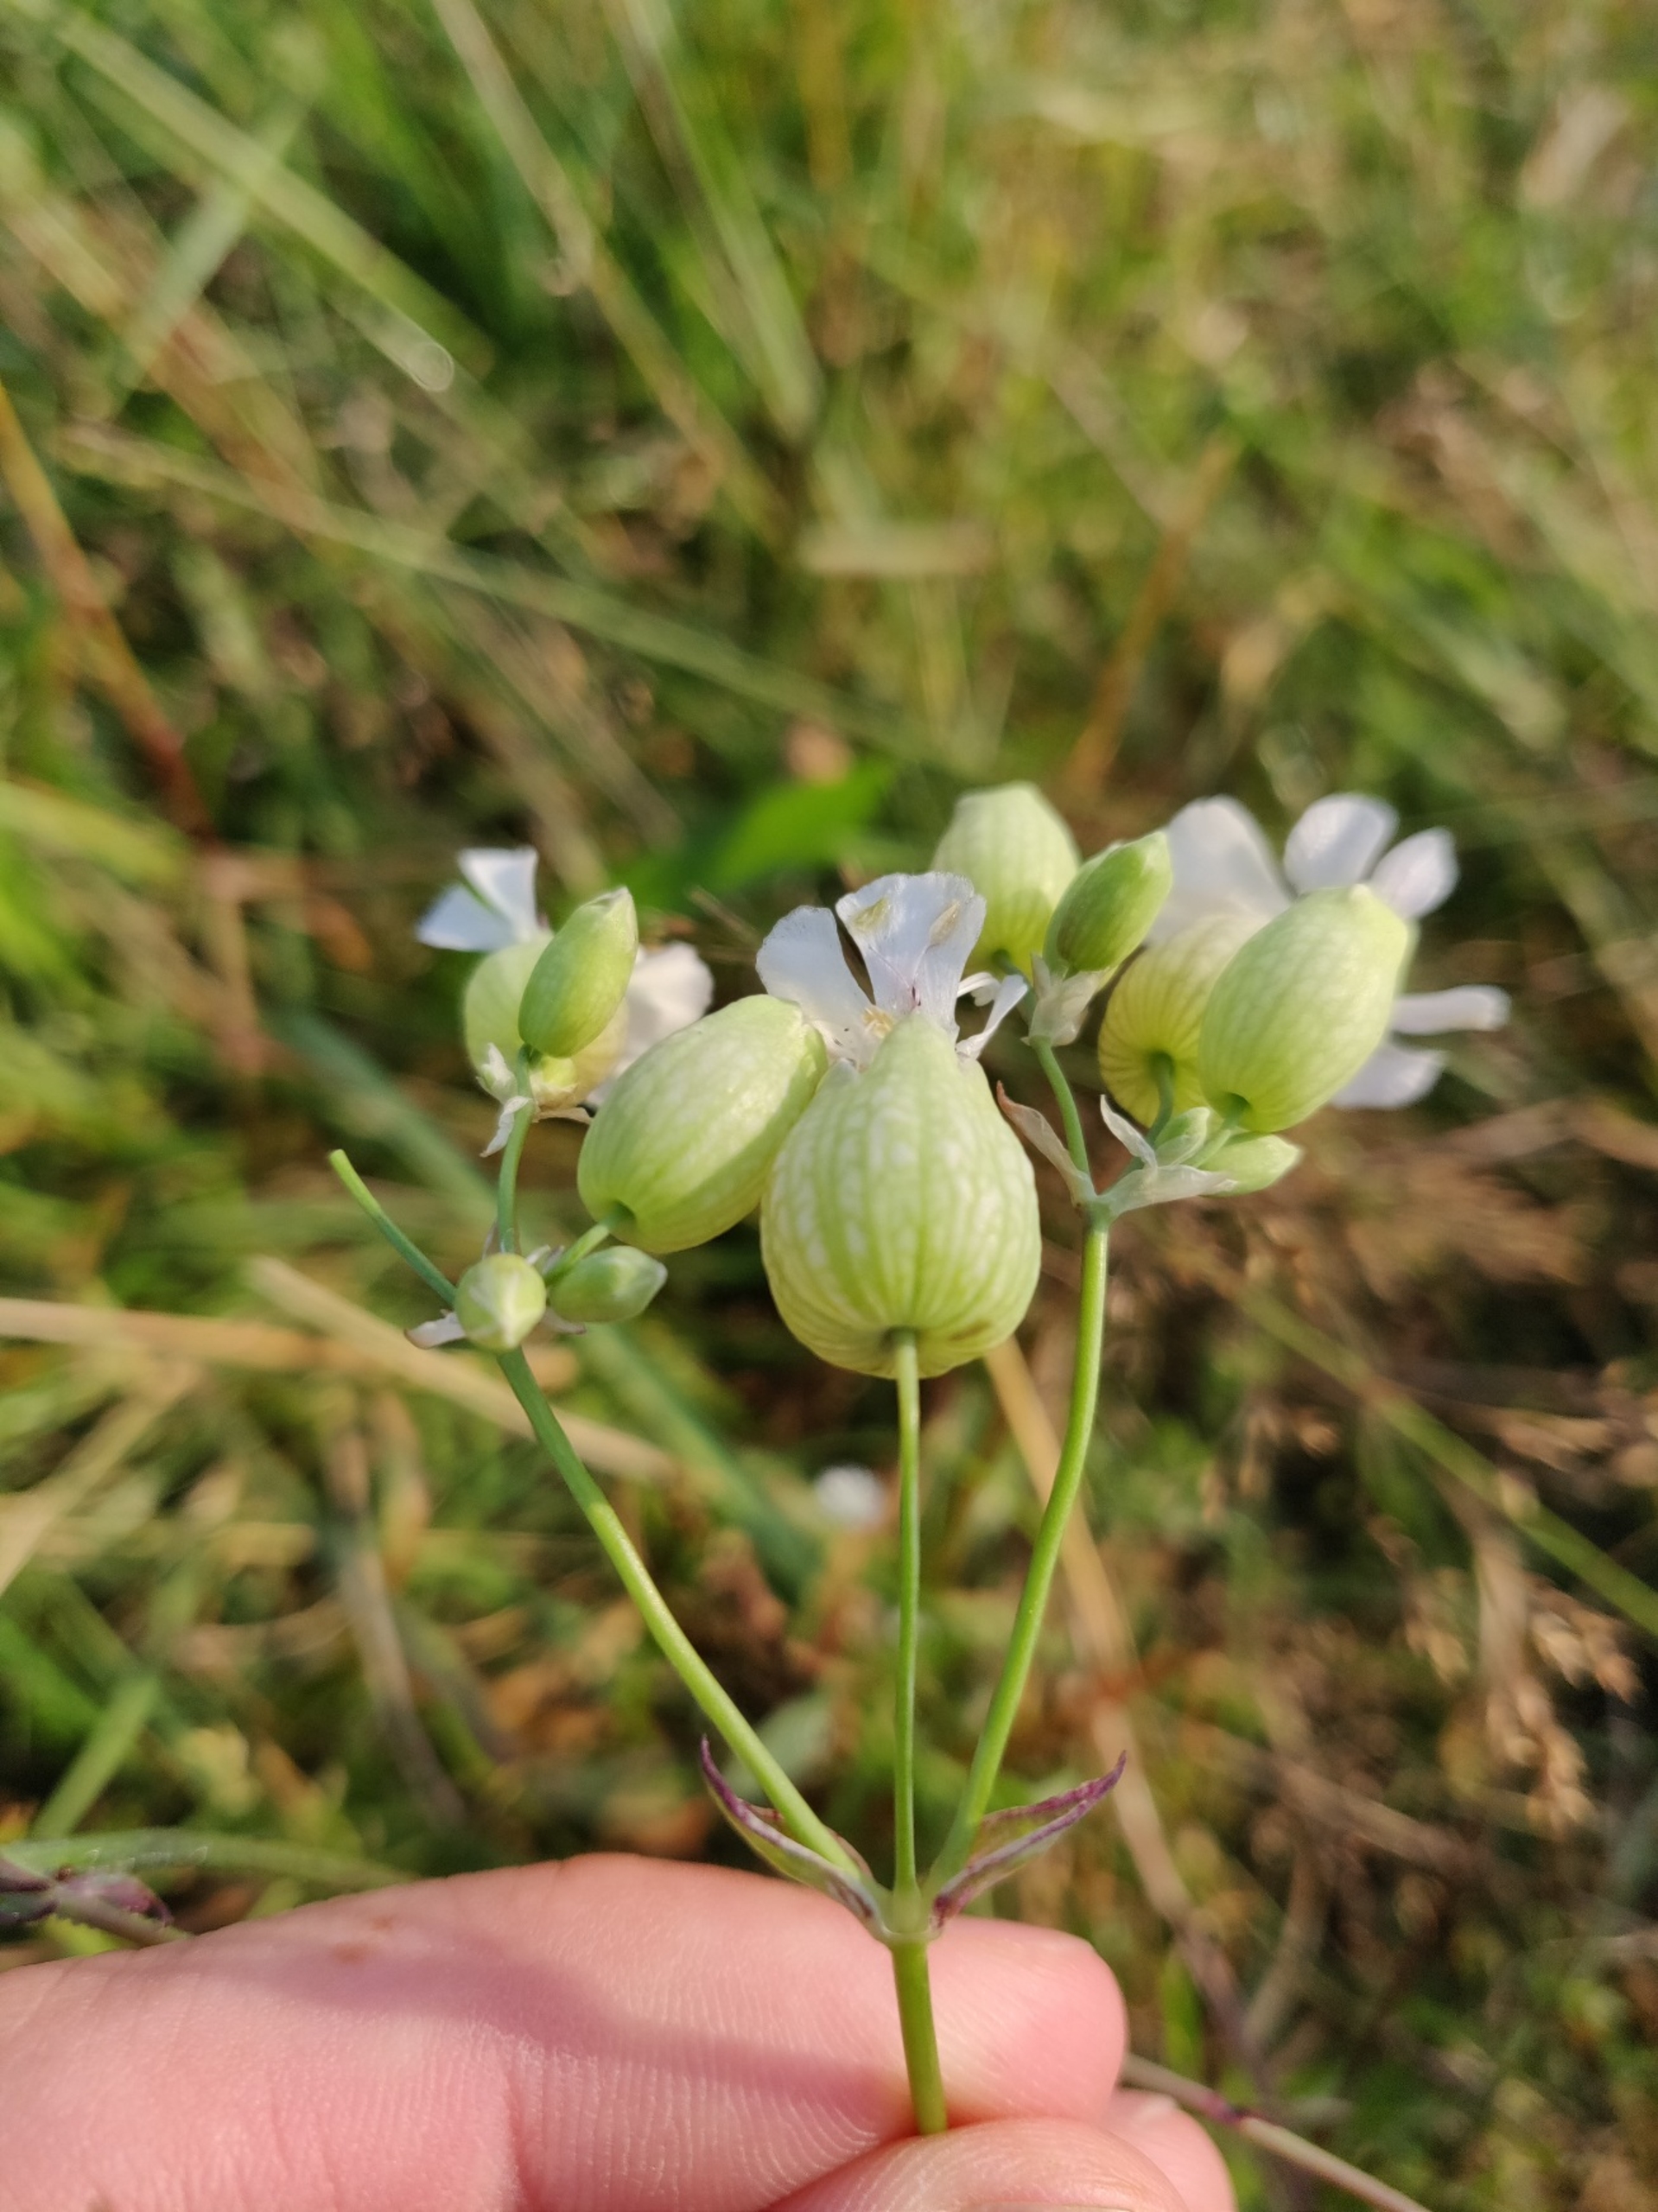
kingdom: Plantae
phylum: Tracheophyta
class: Magnoliopsida
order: Caryophyllales
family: Caryophyllaceae
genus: Silene
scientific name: Silene vulgaris
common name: Blæresmælde
